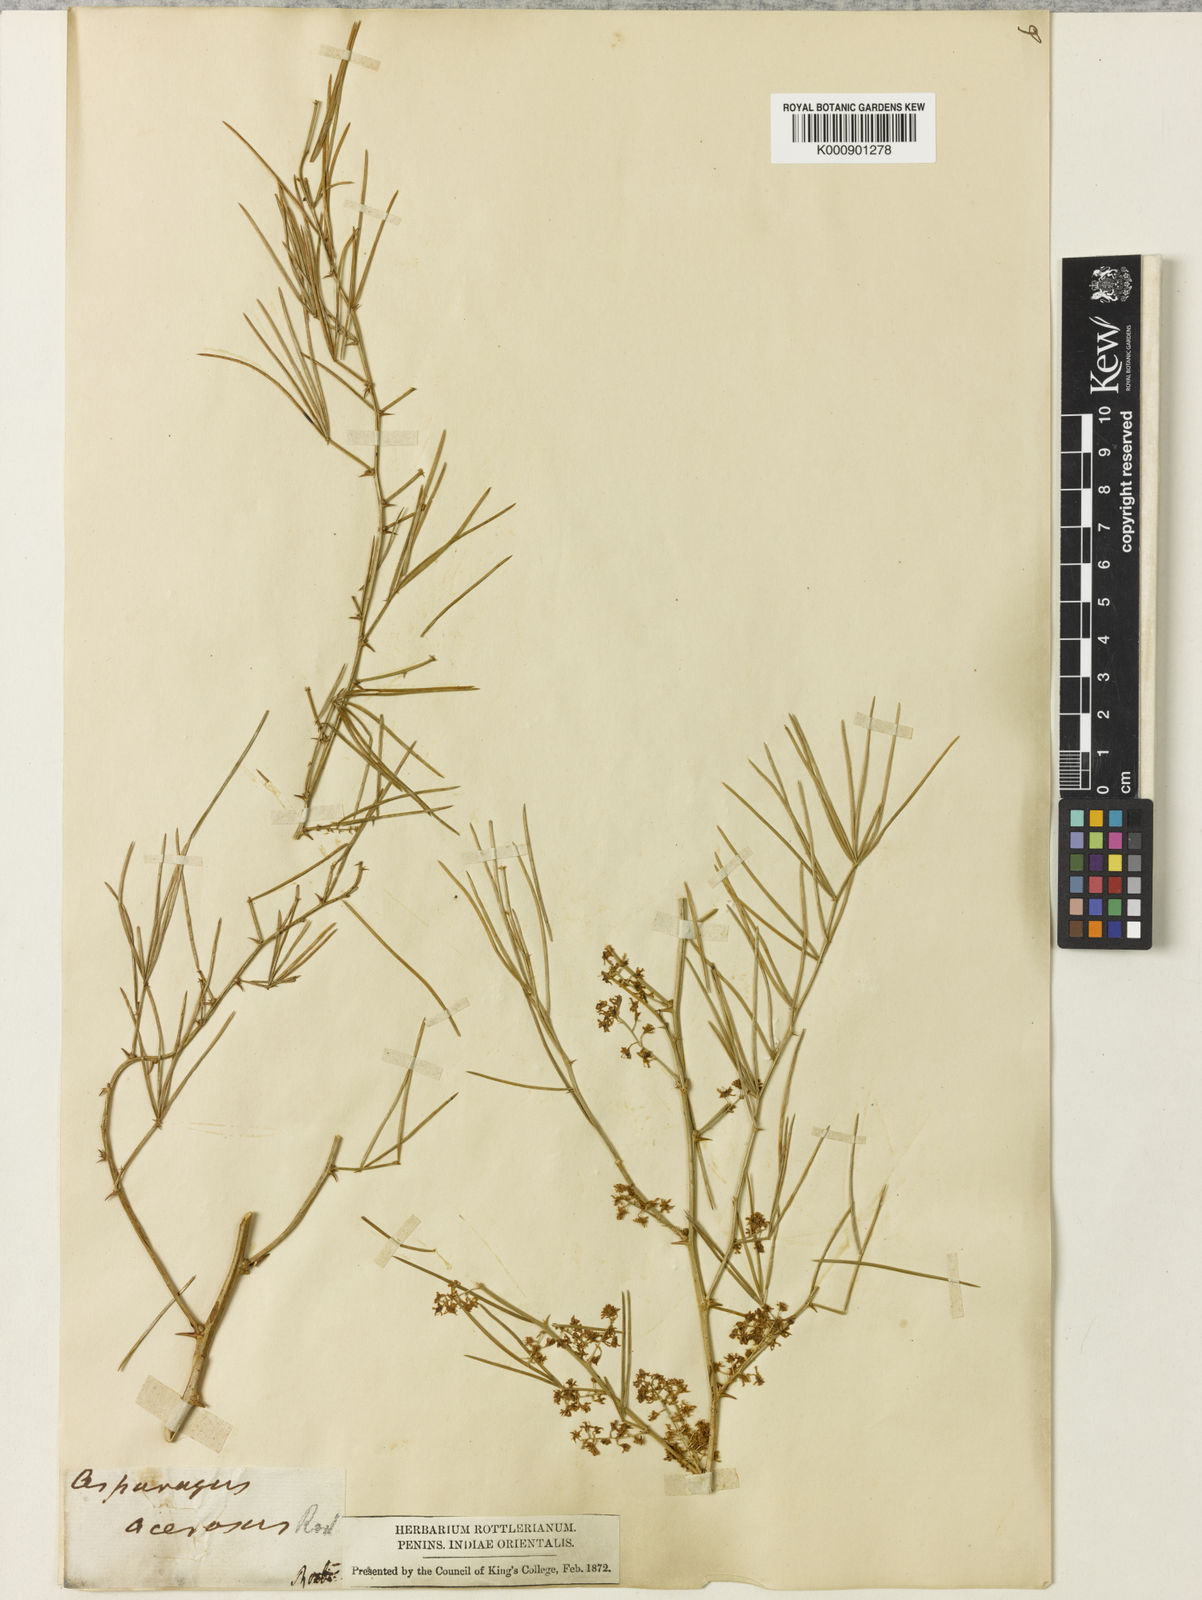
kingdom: Plantae
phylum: Tracheophyta
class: Liliopsida
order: Asparagales
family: Asparagaceae
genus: Asparagus
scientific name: Asparagus racemosus
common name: Asparagus-fern
